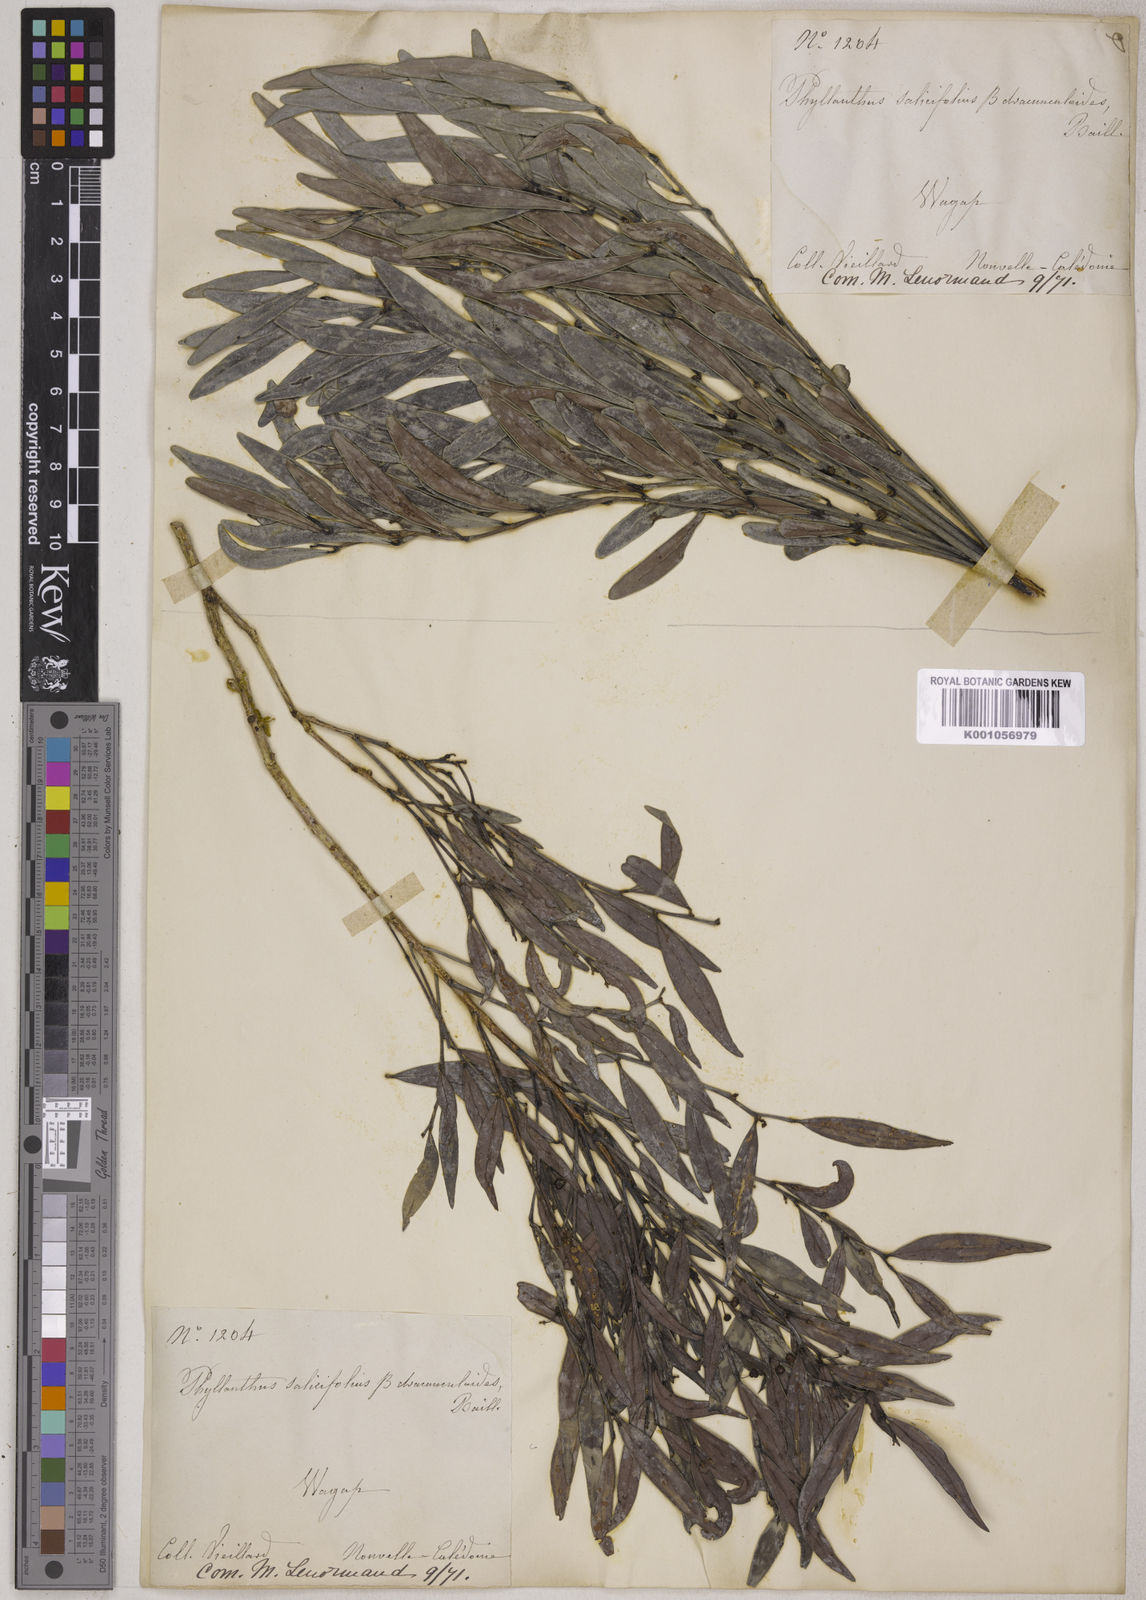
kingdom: Plantae
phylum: Tracheophyta
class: Magnoliopsida
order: Malpighiales
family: Phyllanthaceae
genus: Phyllanthus
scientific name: Phyllanthus dracunculoides
